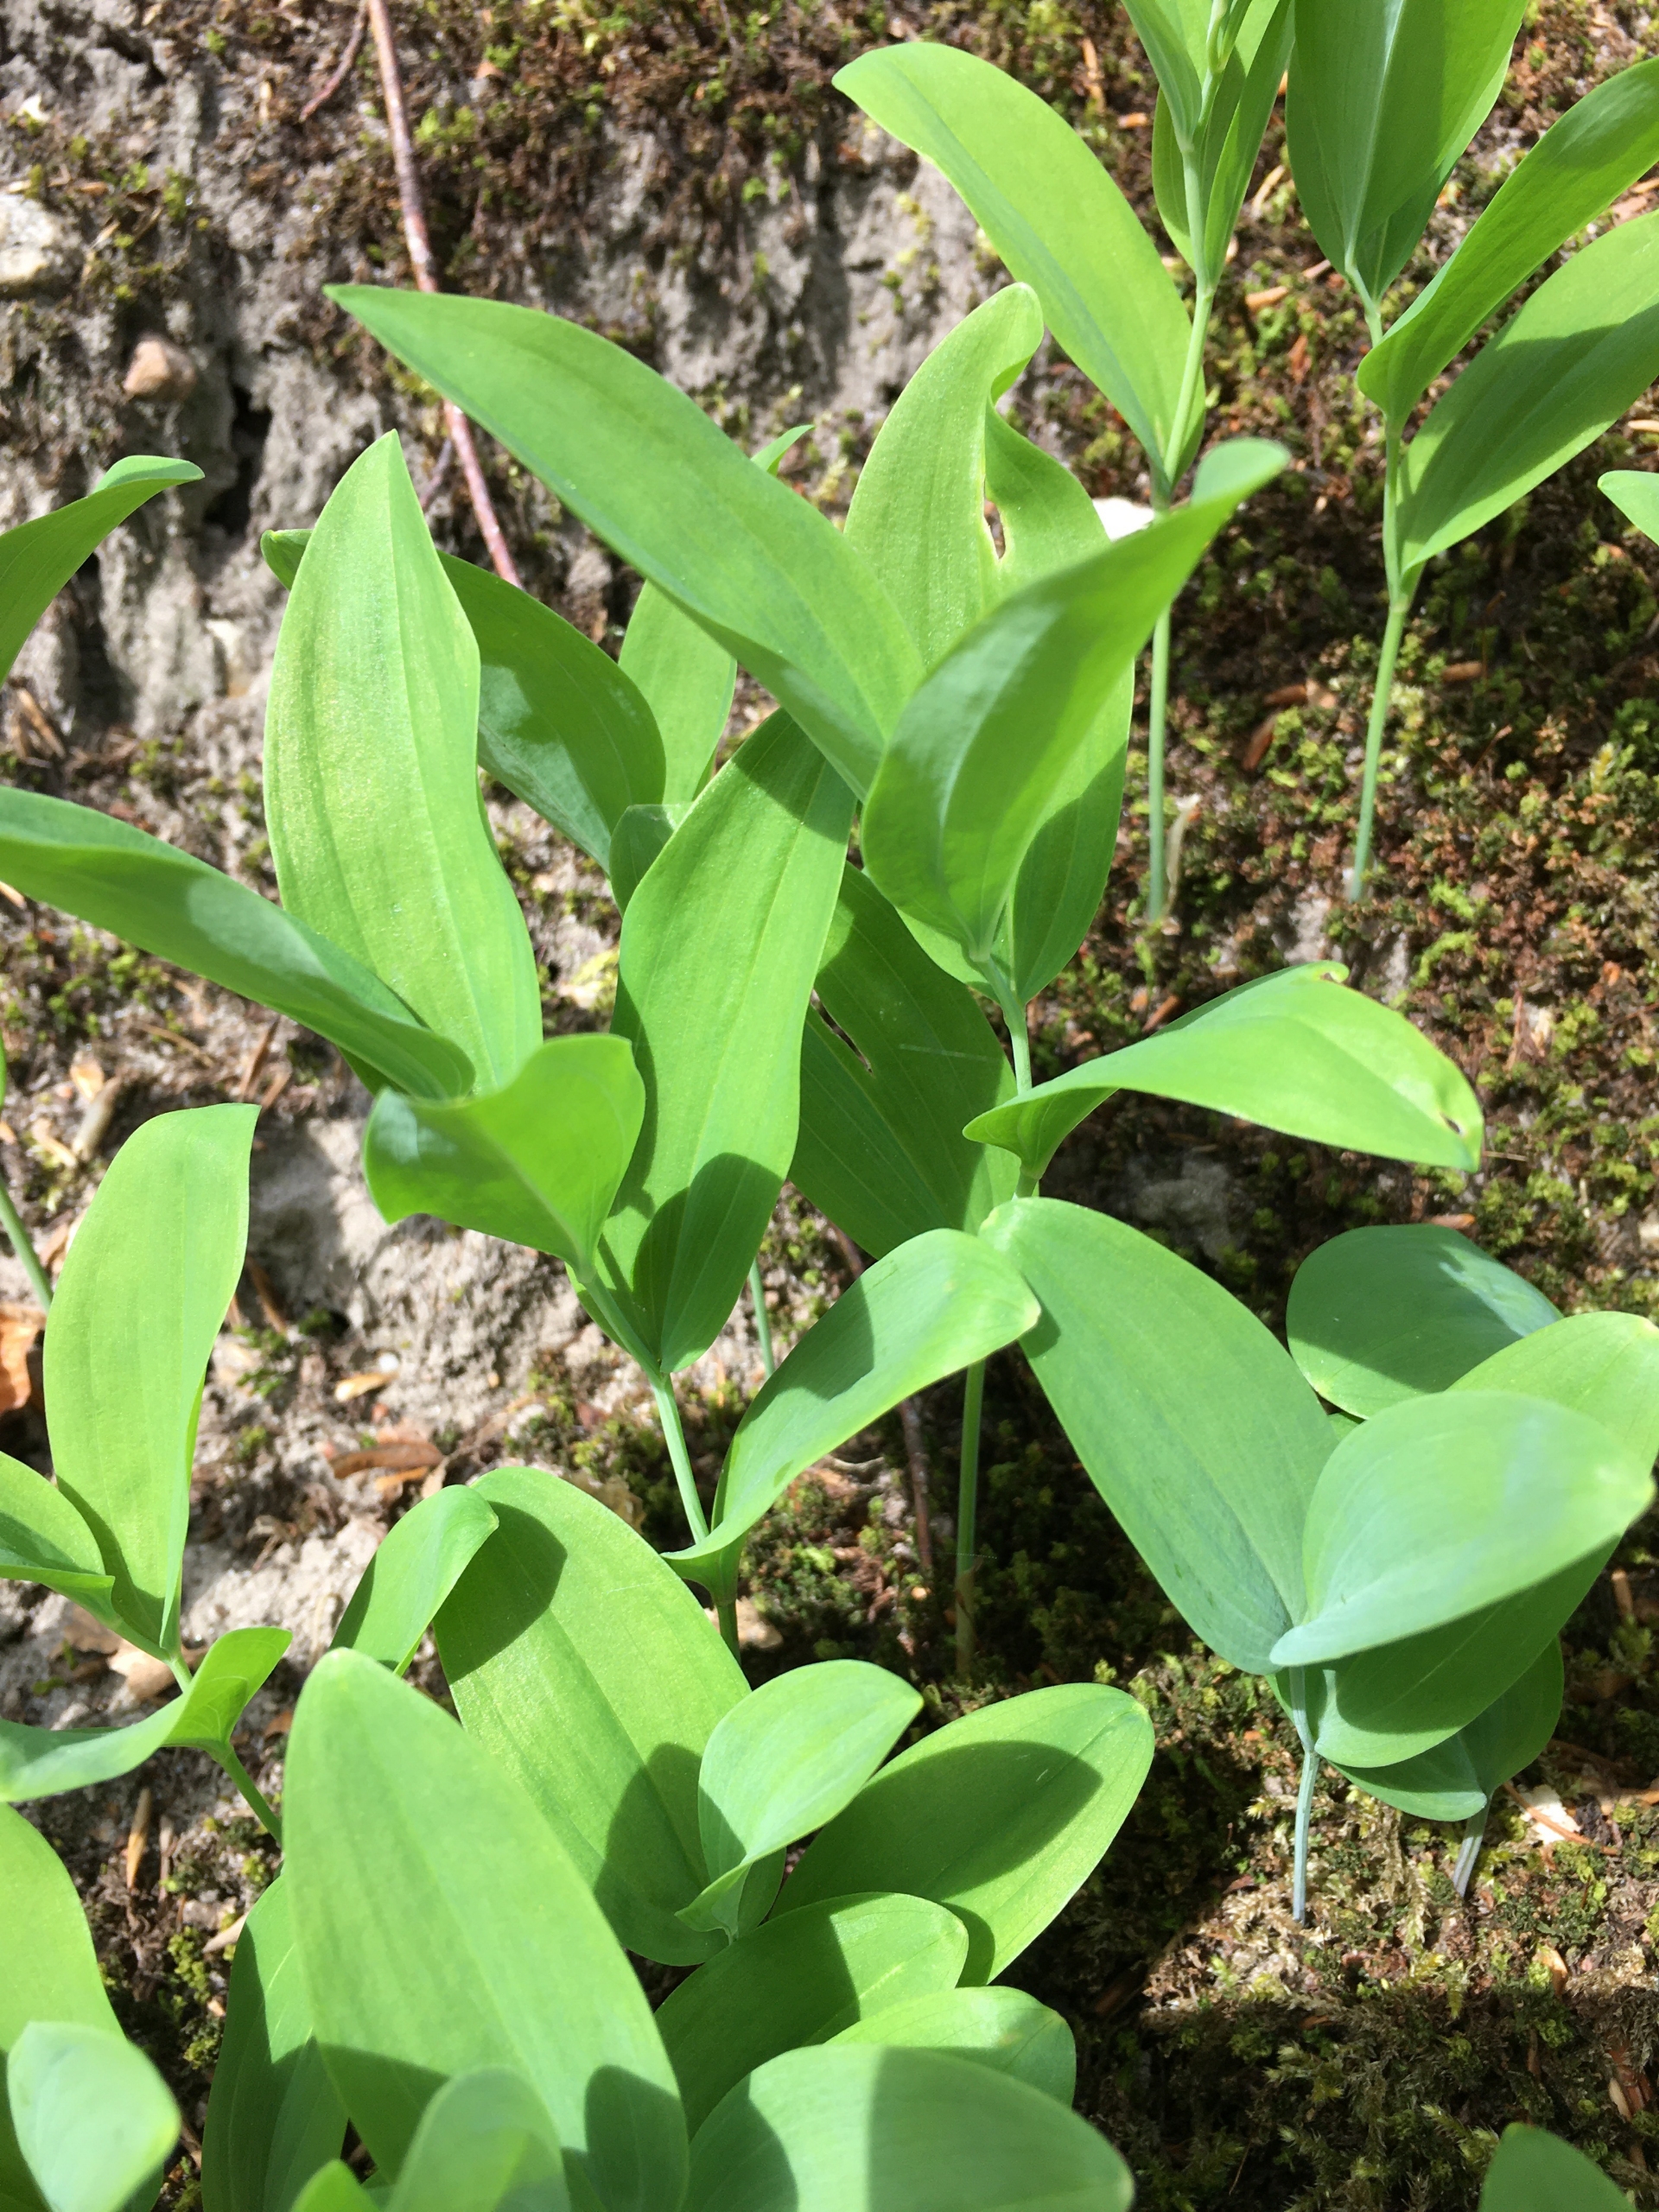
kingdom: Plantae
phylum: Tracheophyta
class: Liliopsida
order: Asparagales
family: Asparagaceae
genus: Polygonatum
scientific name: Polygonatum multiflorum
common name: Stor konval
